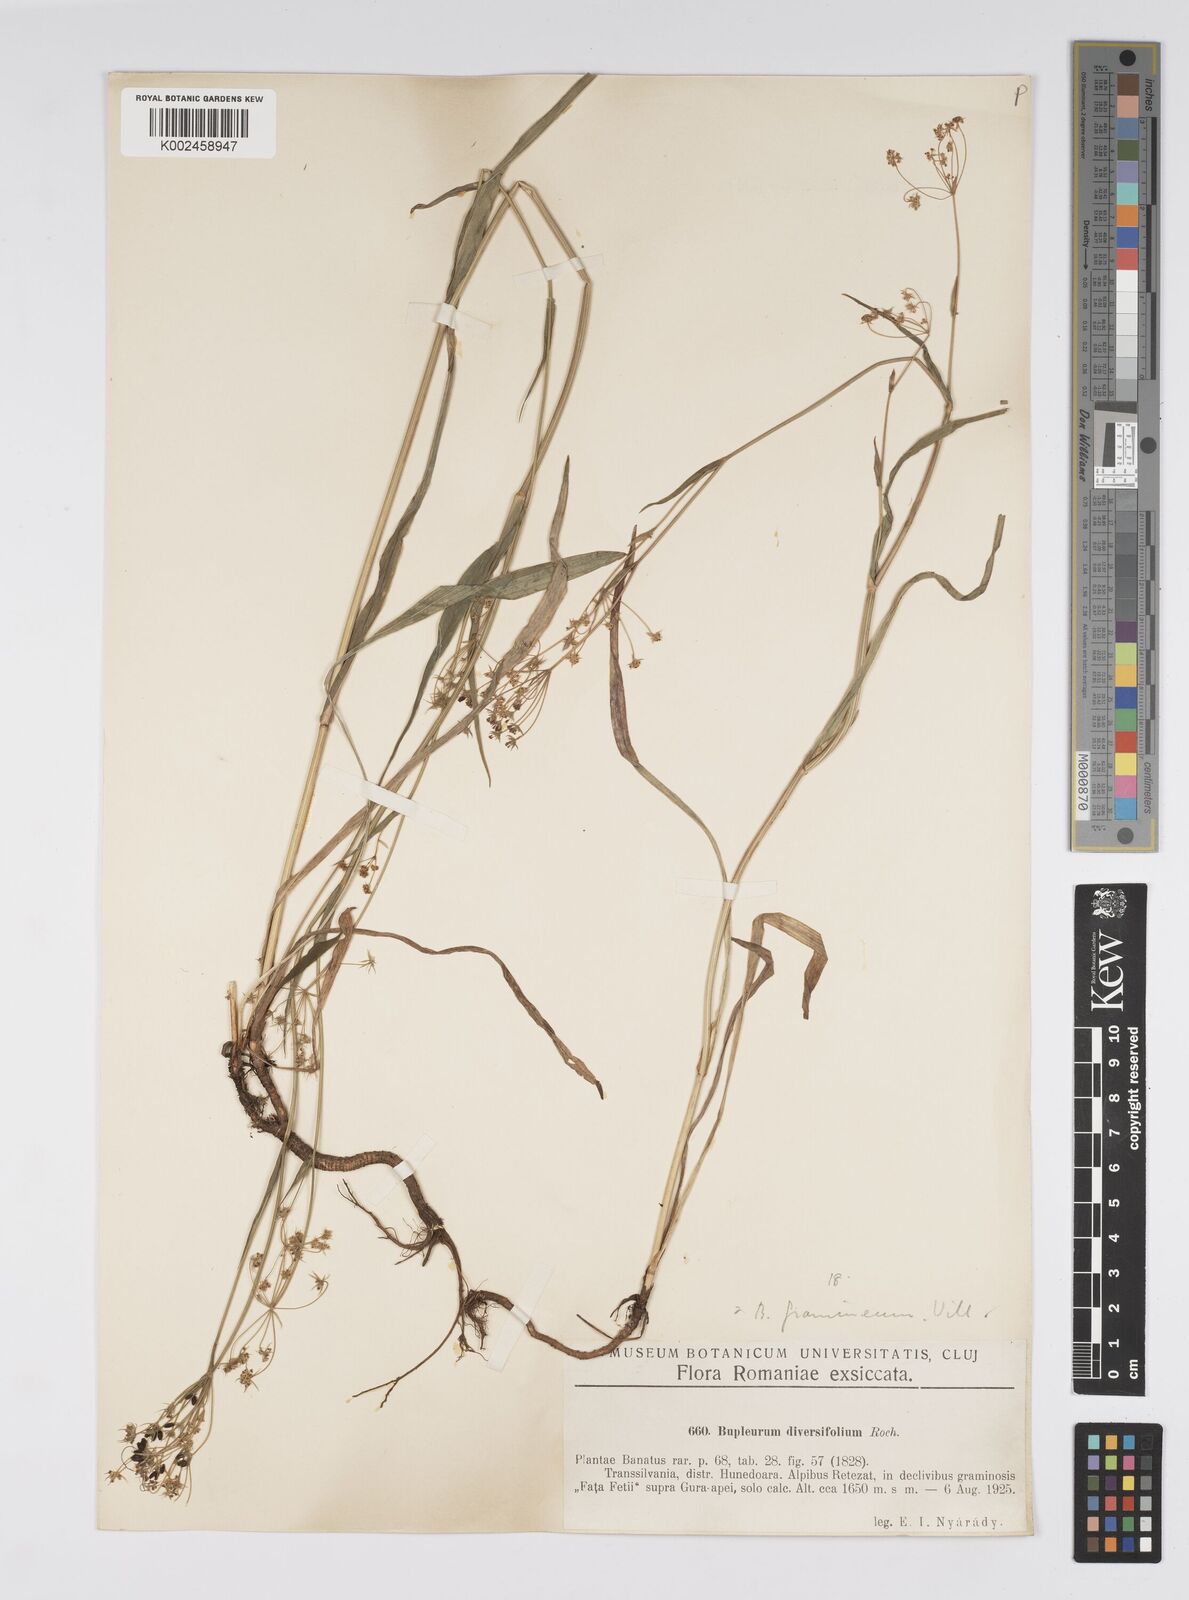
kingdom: Plantae
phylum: Tracheophyta
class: Magnoliopsida
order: Apiales
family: Apiaceae
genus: Bupleurum
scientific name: Bupleurum falcatum
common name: Sickle-leaved hare's-ear
